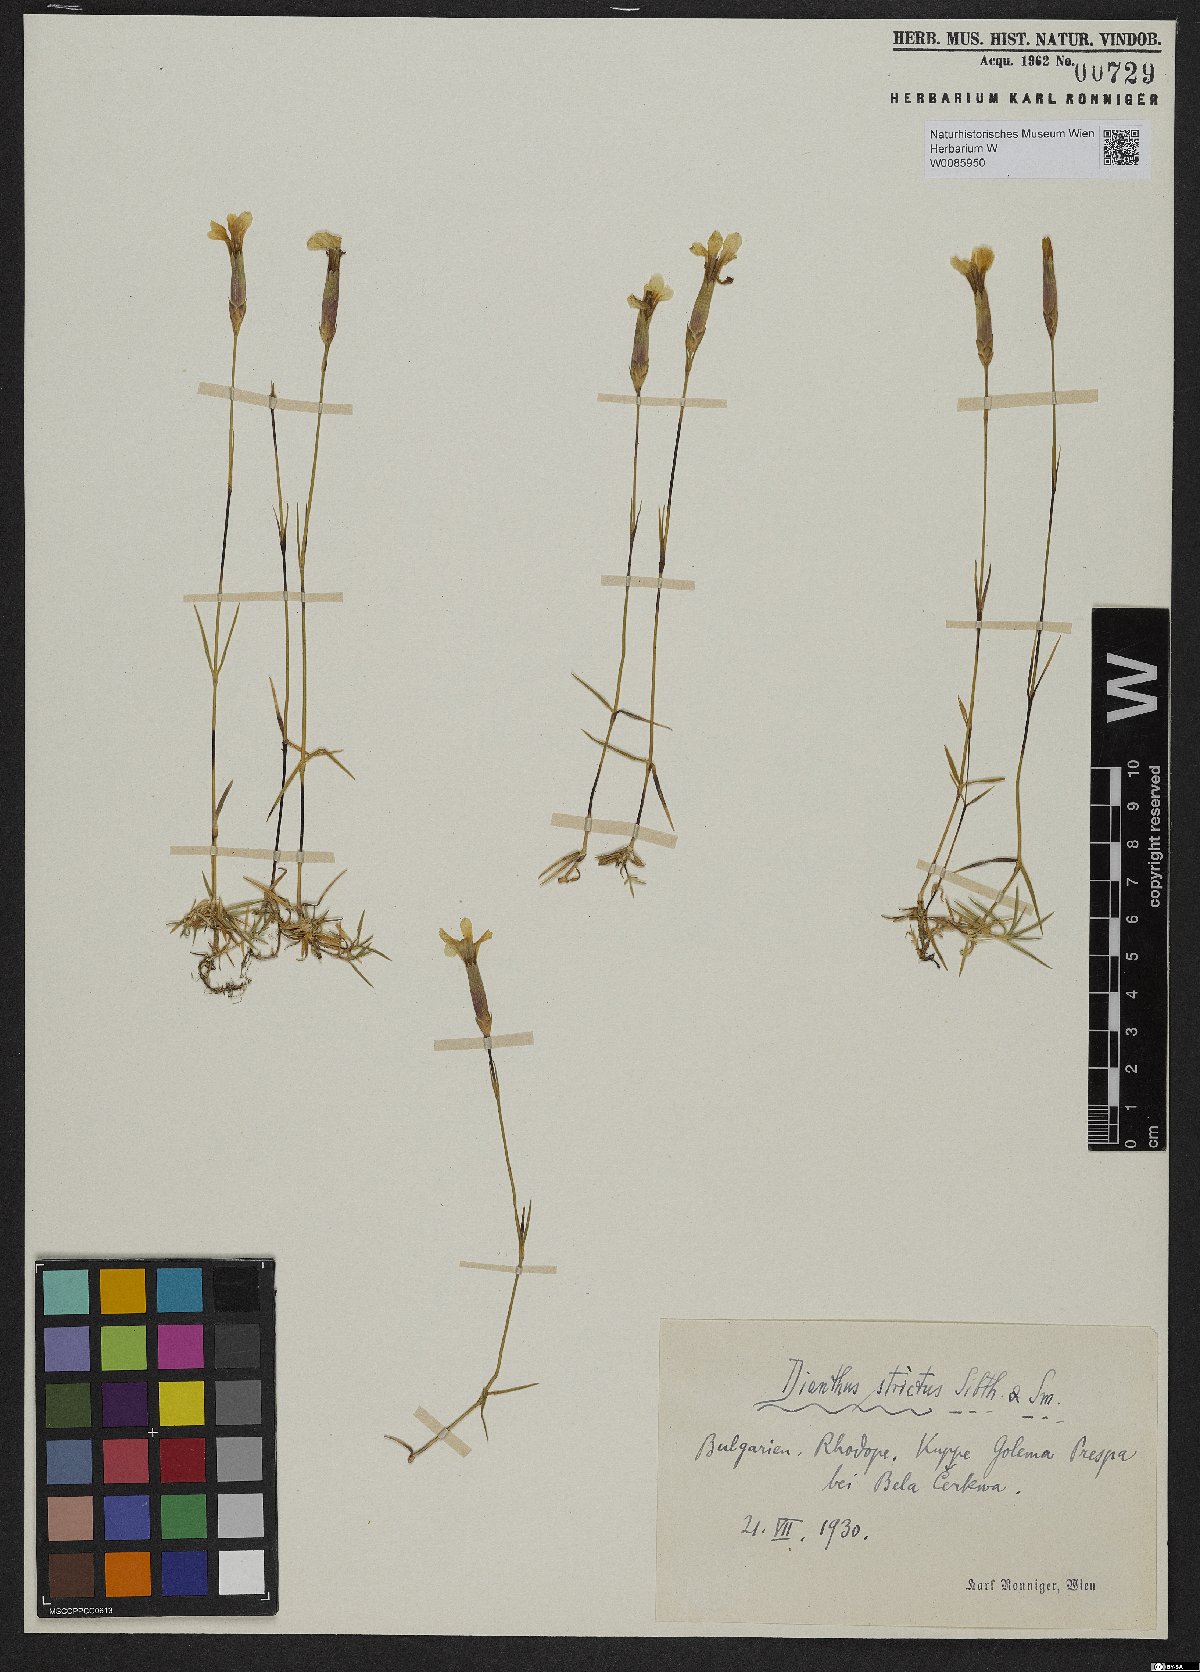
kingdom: Plantae
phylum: Tracheophyta
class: Magnoliopsida
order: Caryophyllales
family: Caryophyllaceae
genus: Dianthus
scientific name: Dianthus petraeus
